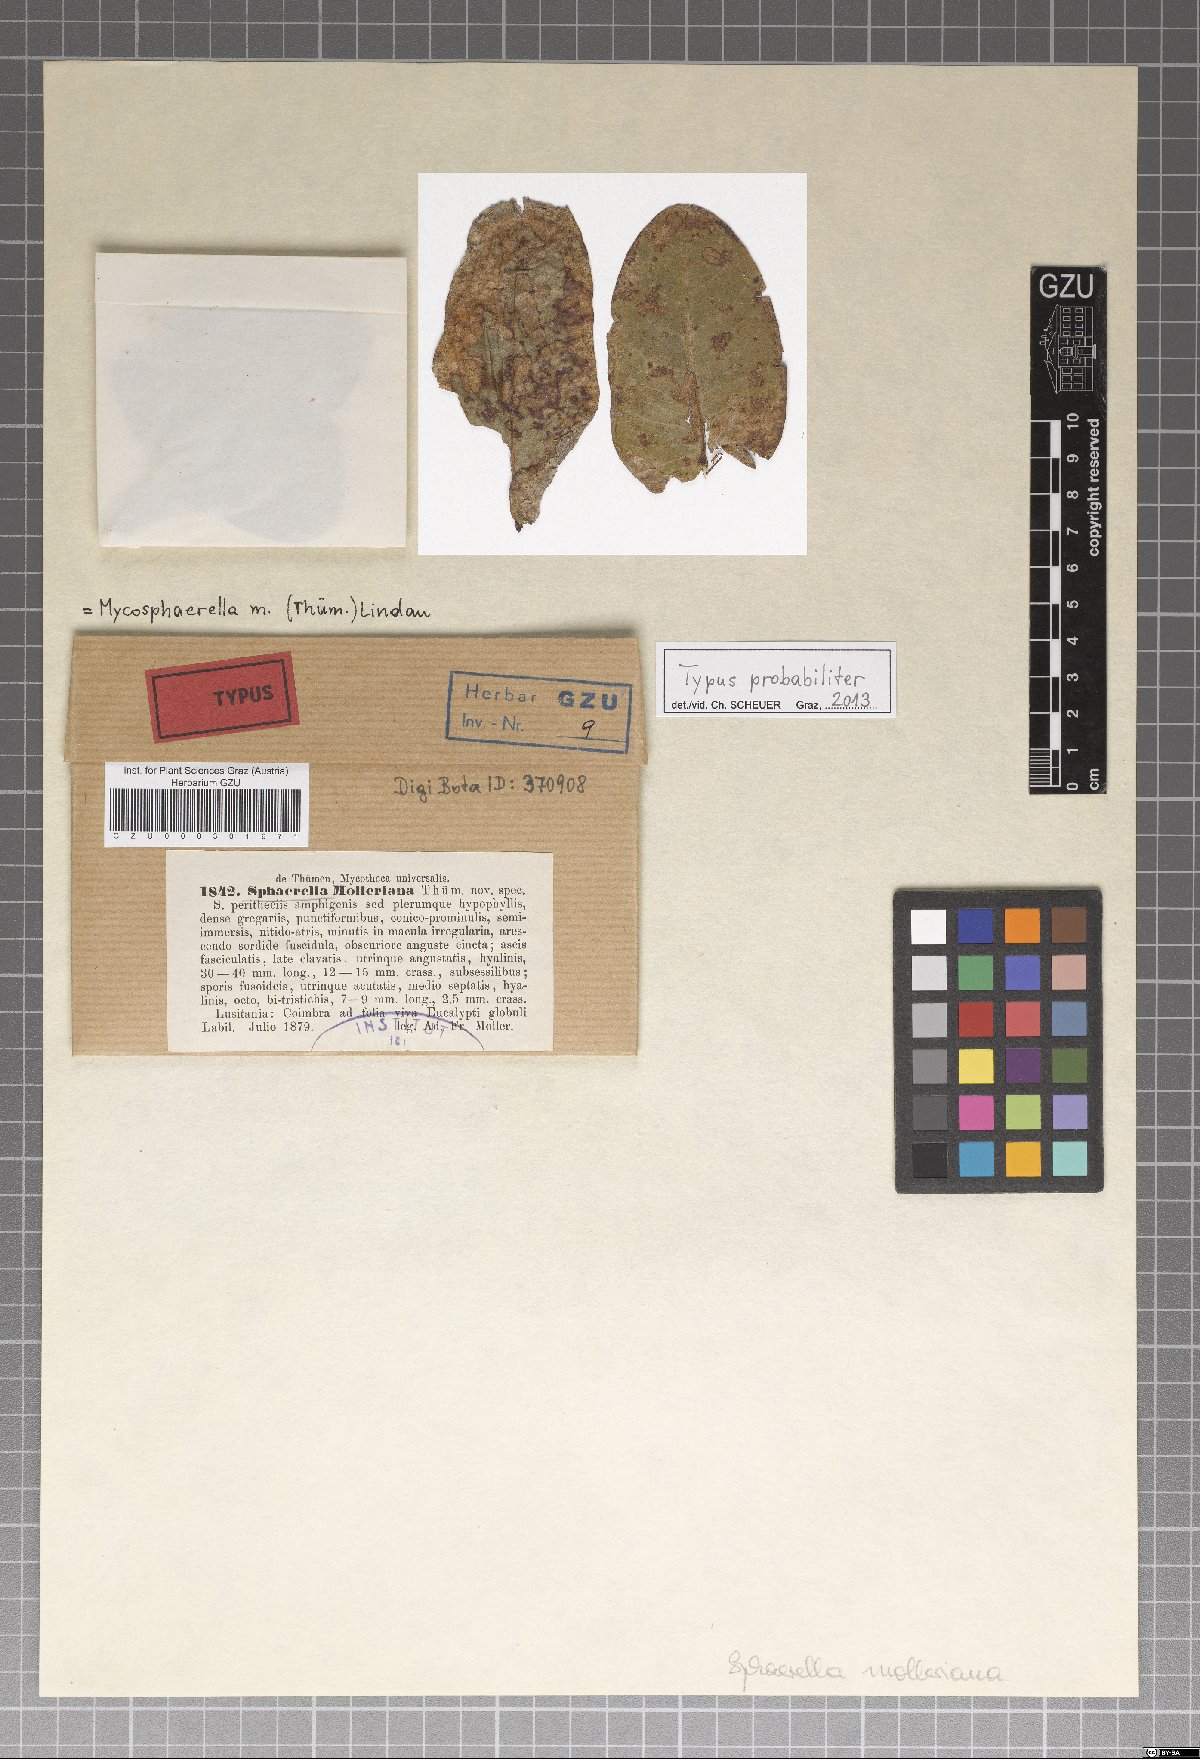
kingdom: Fungi
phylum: Ascomycota
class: Dothideomycetes
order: Mycosphaerellales
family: Teratosphaeriaceae
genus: Teratosphaeria
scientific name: Teratosphaeria molleriana
